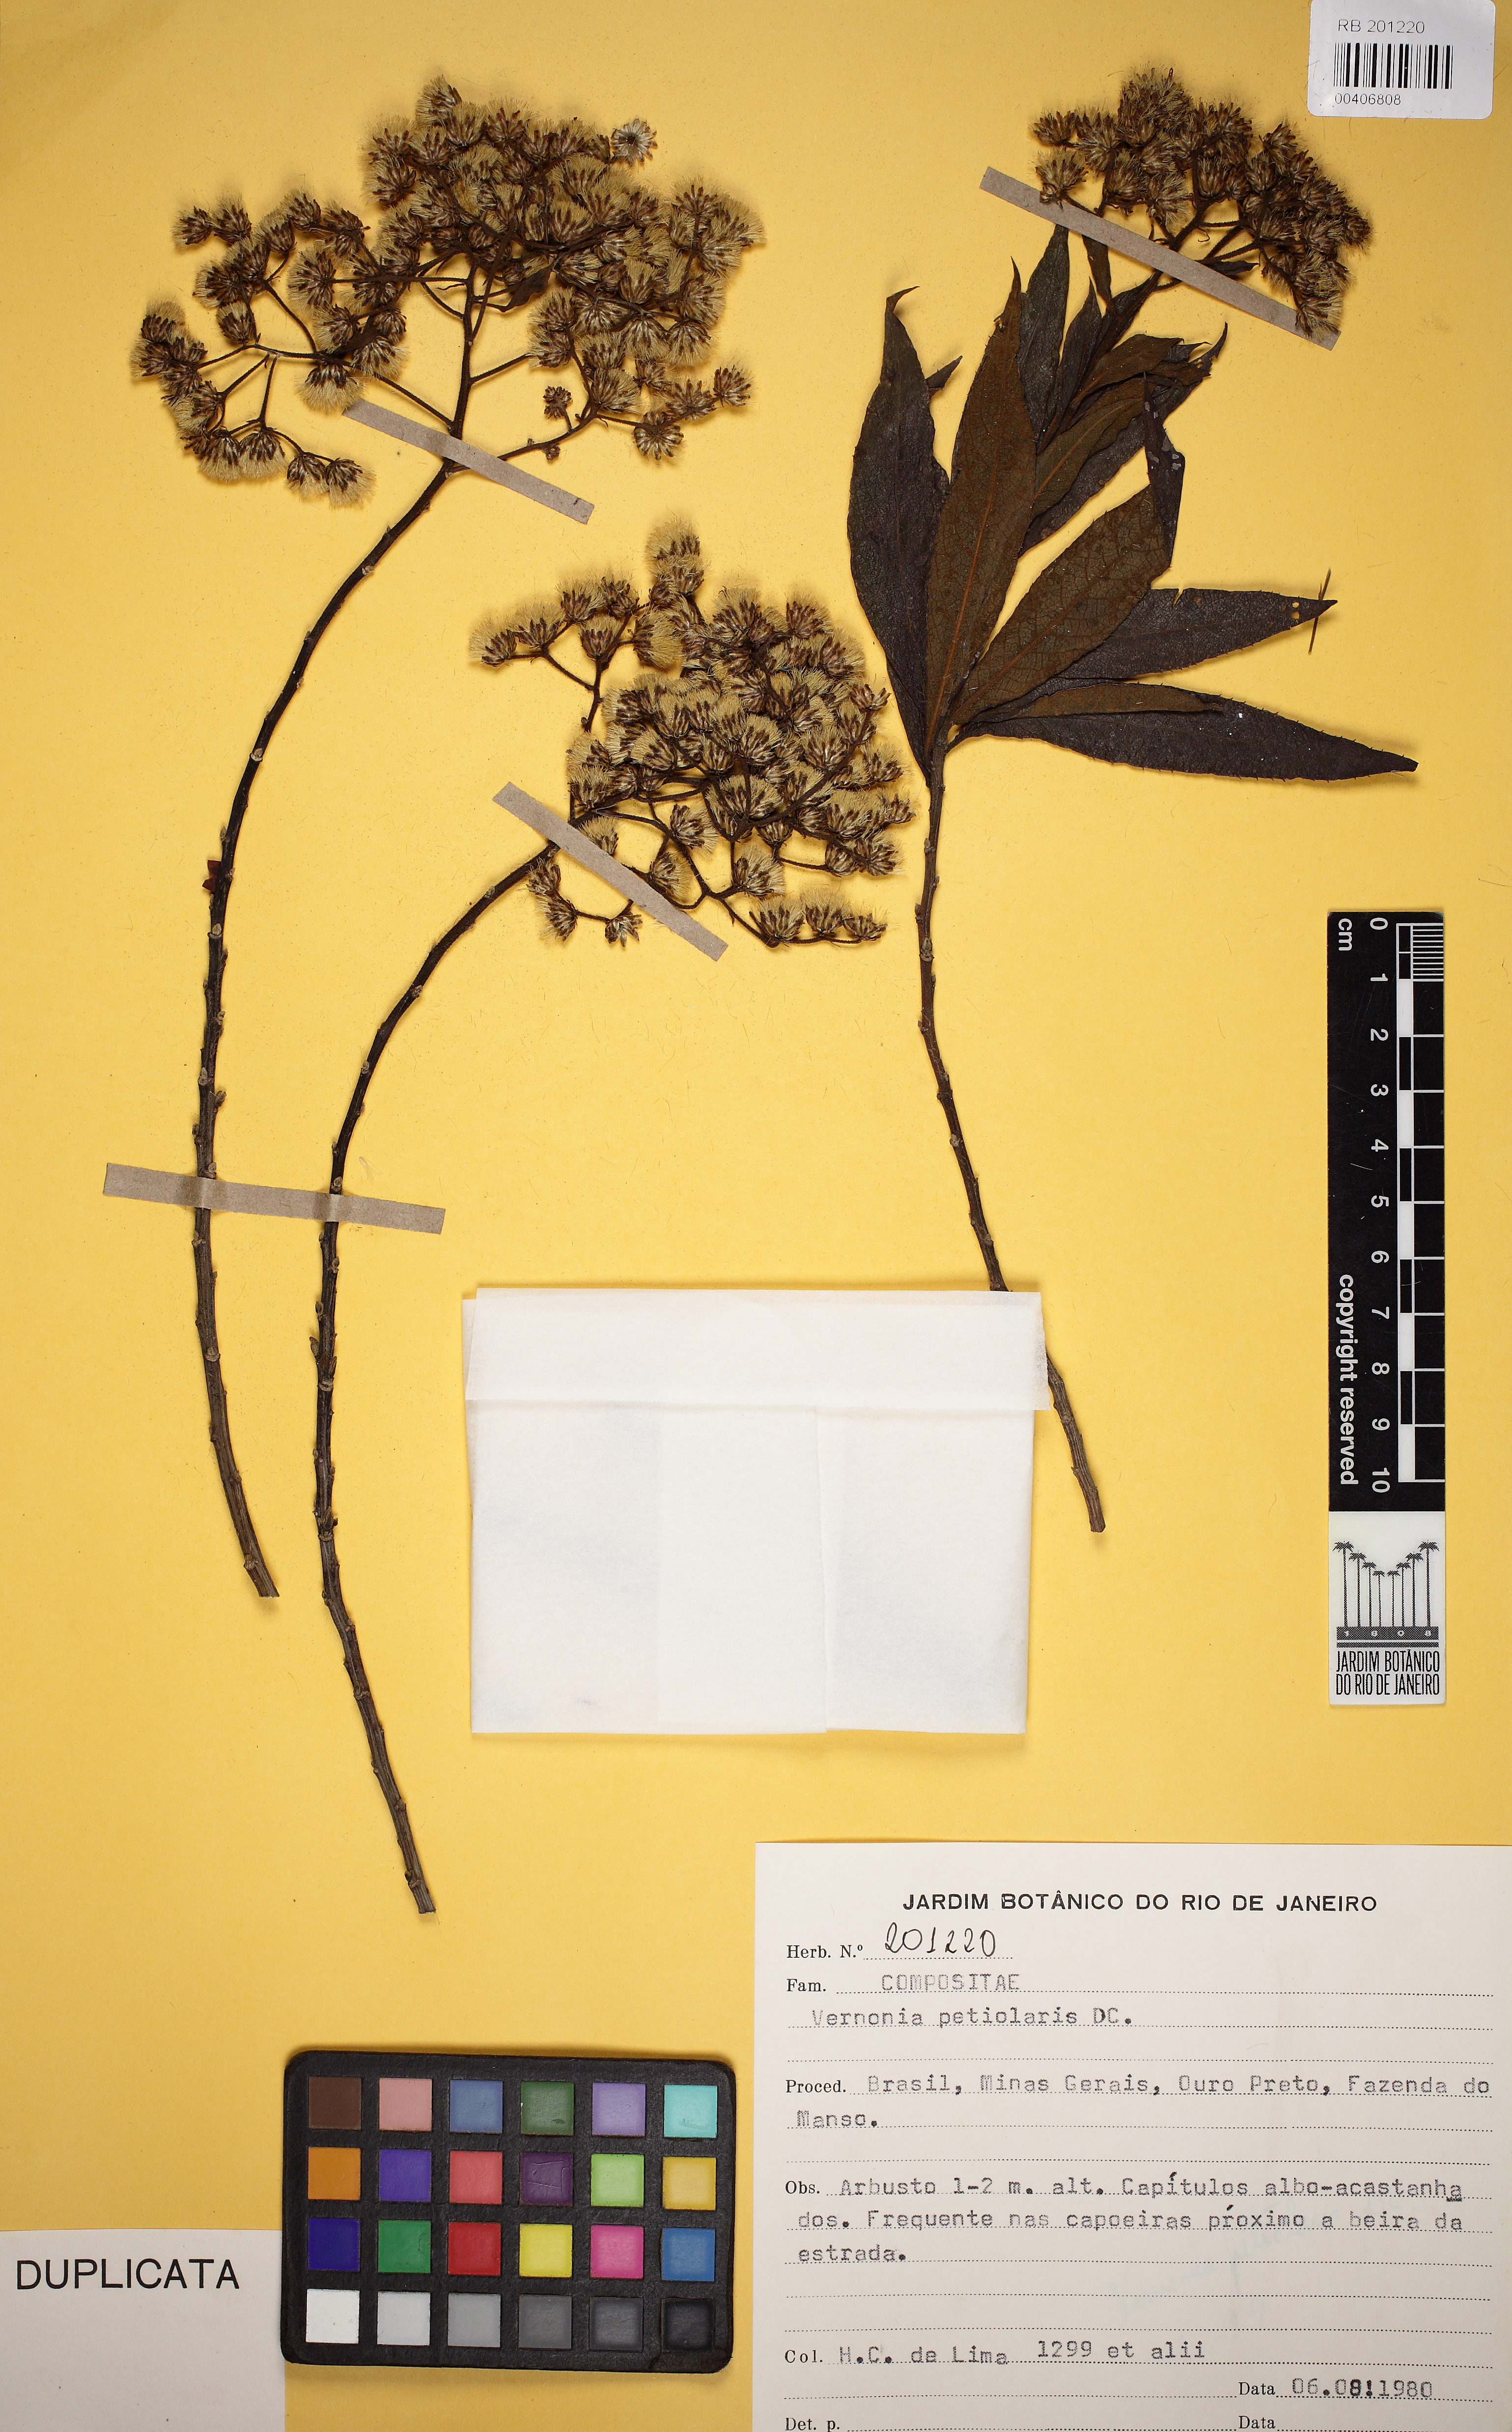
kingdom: Plantae
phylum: Tracheophyta
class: Magnoliopsida
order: Asterales
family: Asteraceae
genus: Vernonanthura
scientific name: Vernonanthura petiolaris
